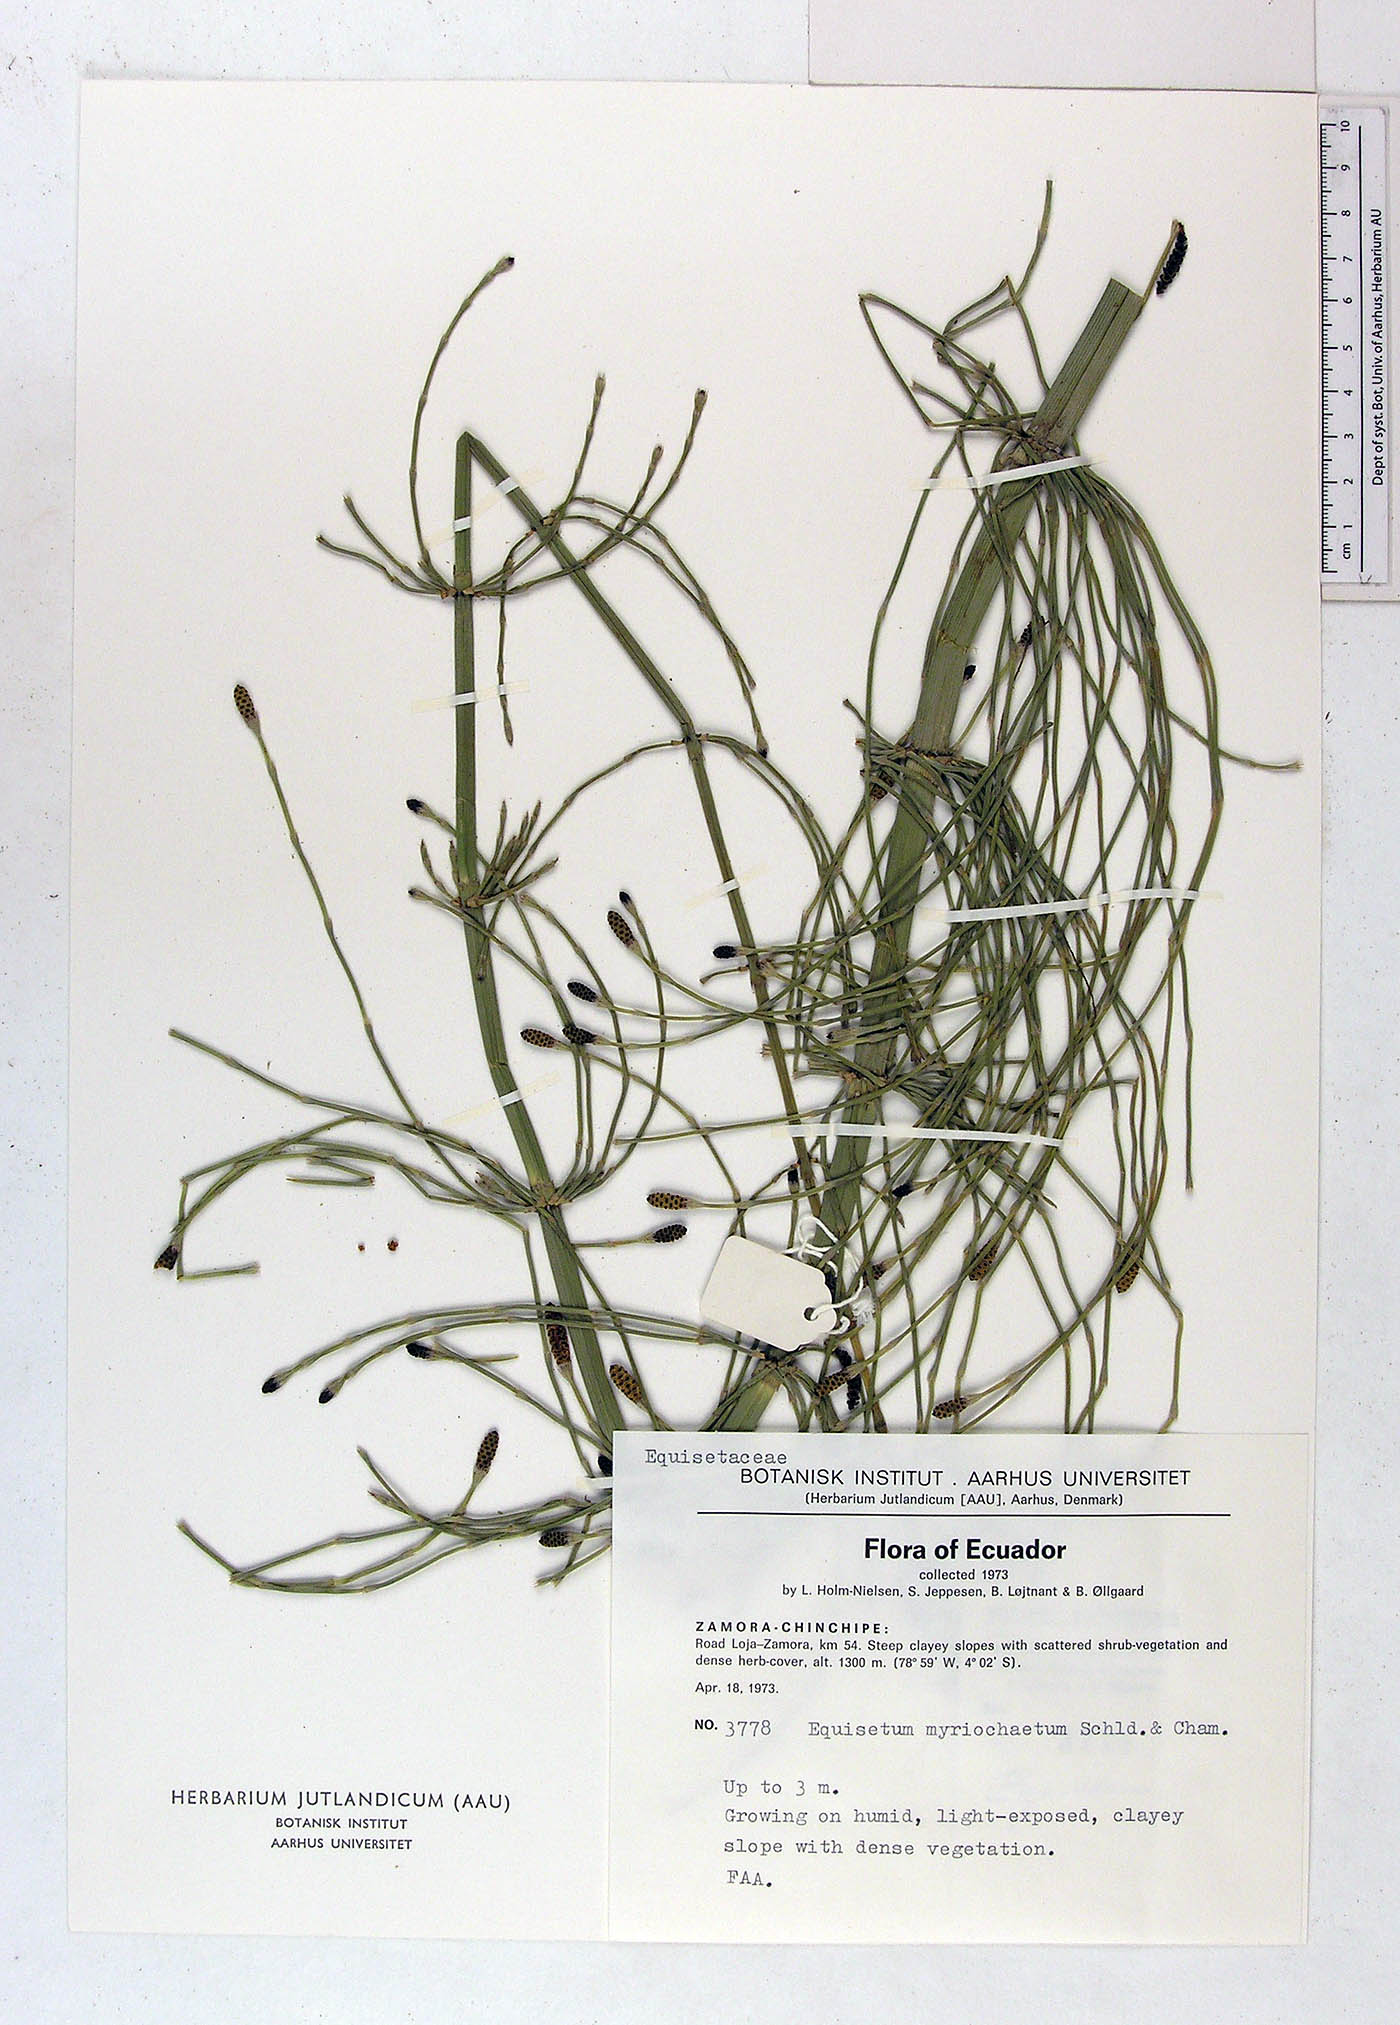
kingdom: Plantae
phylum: Tracheophyta
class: Polypodiopsida
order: Equisetales
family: Equisetaceae
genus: Equisetum
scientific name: Equisetum myriochaetum
